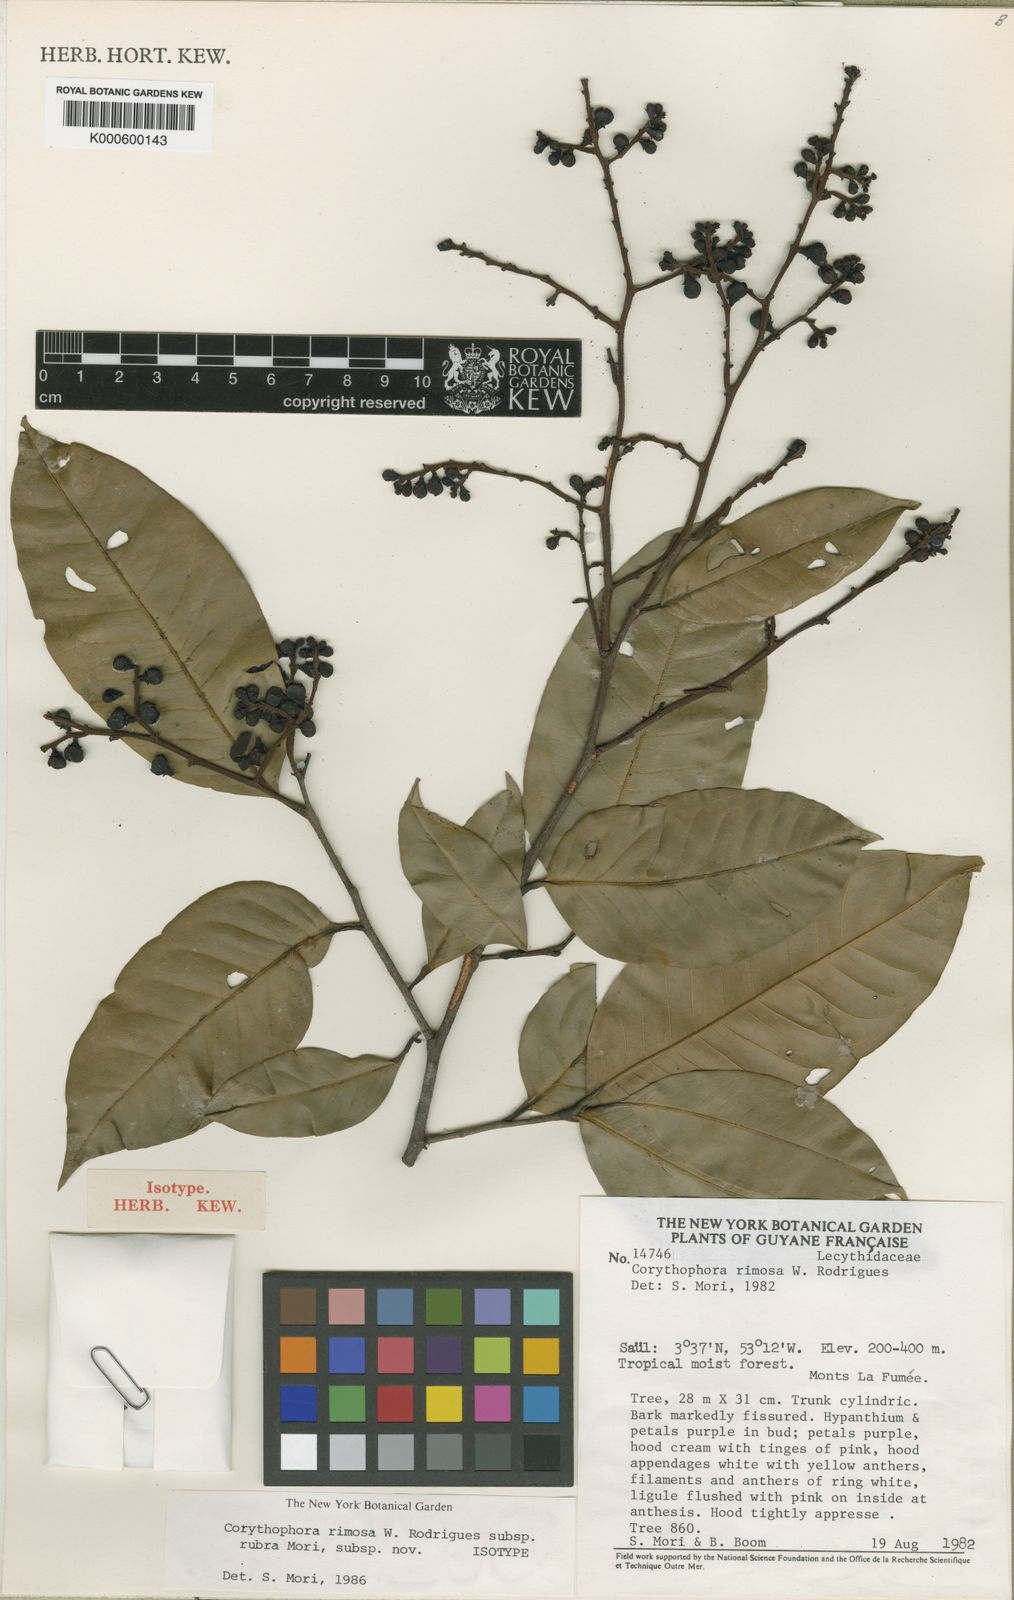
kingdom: Plantae
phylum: Tracheophyta
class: Magnoliopsida
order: Ericales
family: Lecythidaceae
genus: Corythophora
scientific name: Corythophora rimosa
